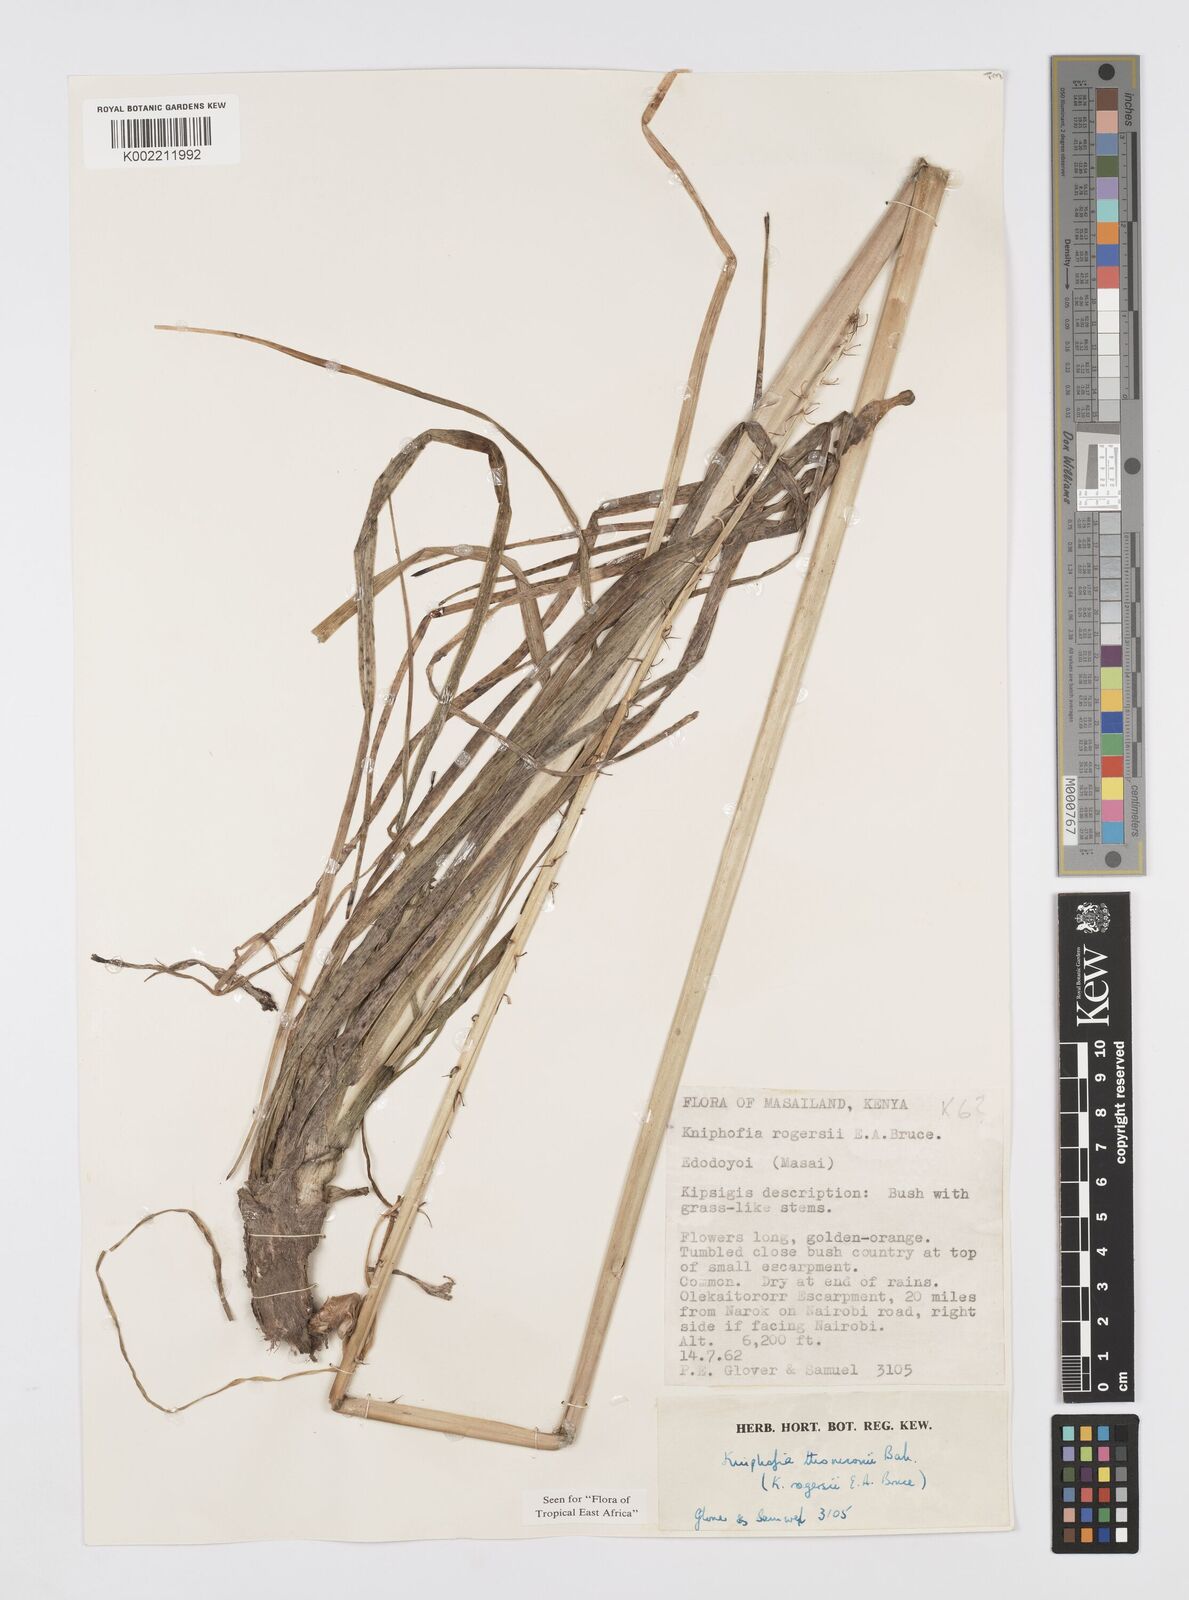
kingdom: Plantae
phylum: Tracheophyta
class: Liliopsida
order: Asparagales
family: Asphodelaceae
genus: Kniphofia
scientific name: Kniphofia thomsonii
